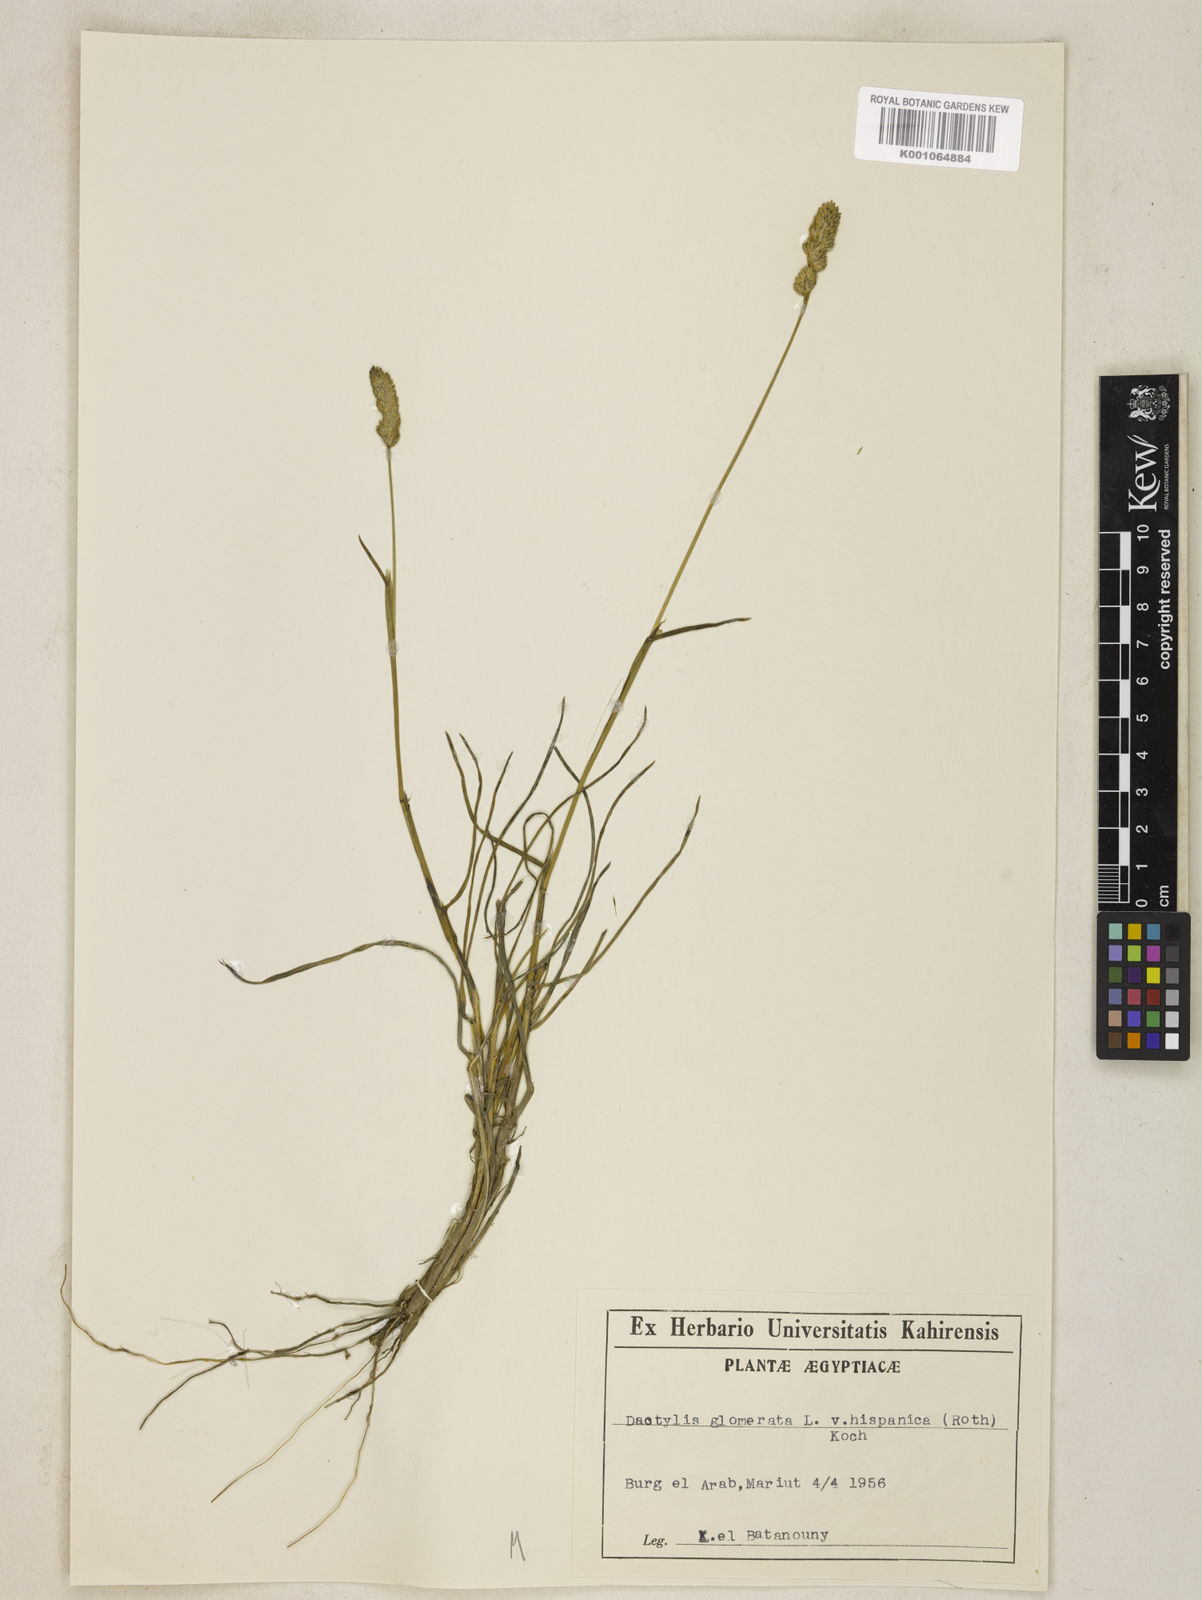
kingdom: Plantae
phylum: Tracheophyta
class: Liliopsida
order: Poales
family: Poaceae
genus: Dactylis
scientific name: Dactylis glomerata
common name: Orchardgrass
